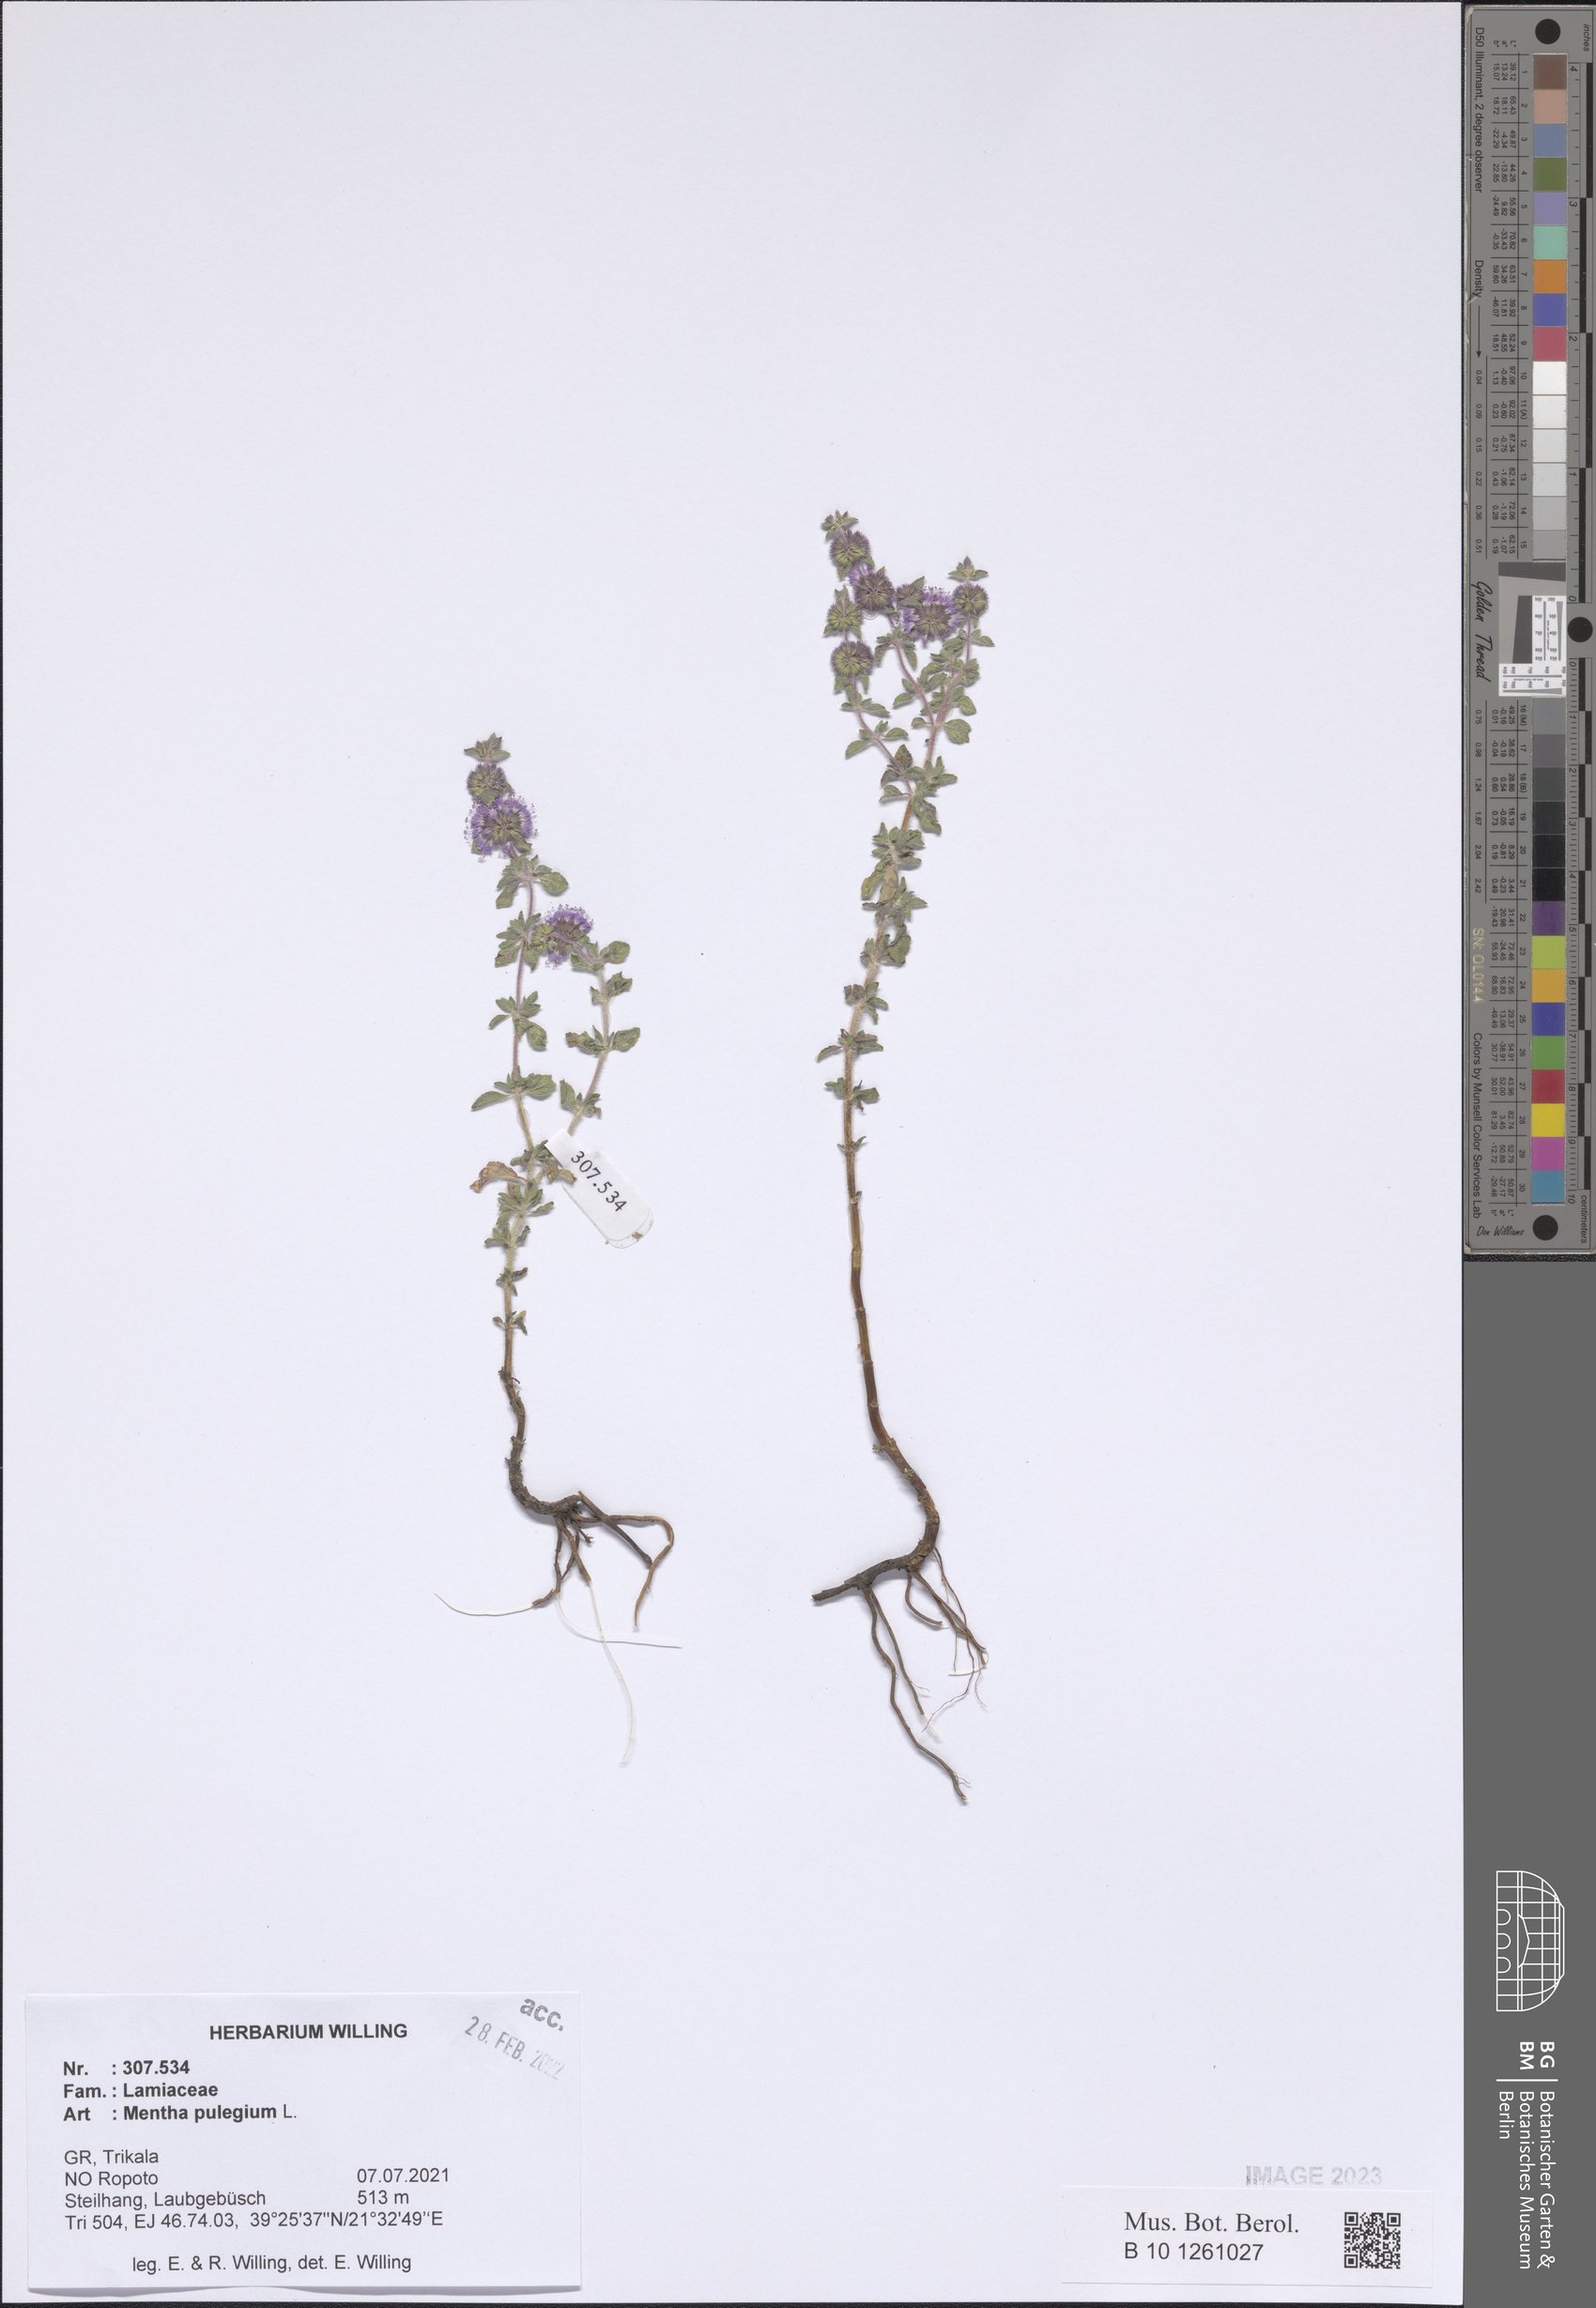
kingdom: Plantae
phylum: Tracheophyta
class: Magnoliopsida
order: Lamiales
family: Lamiaceae
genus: Mentha
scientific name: Mentha pulegium
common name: Pennyroyal
